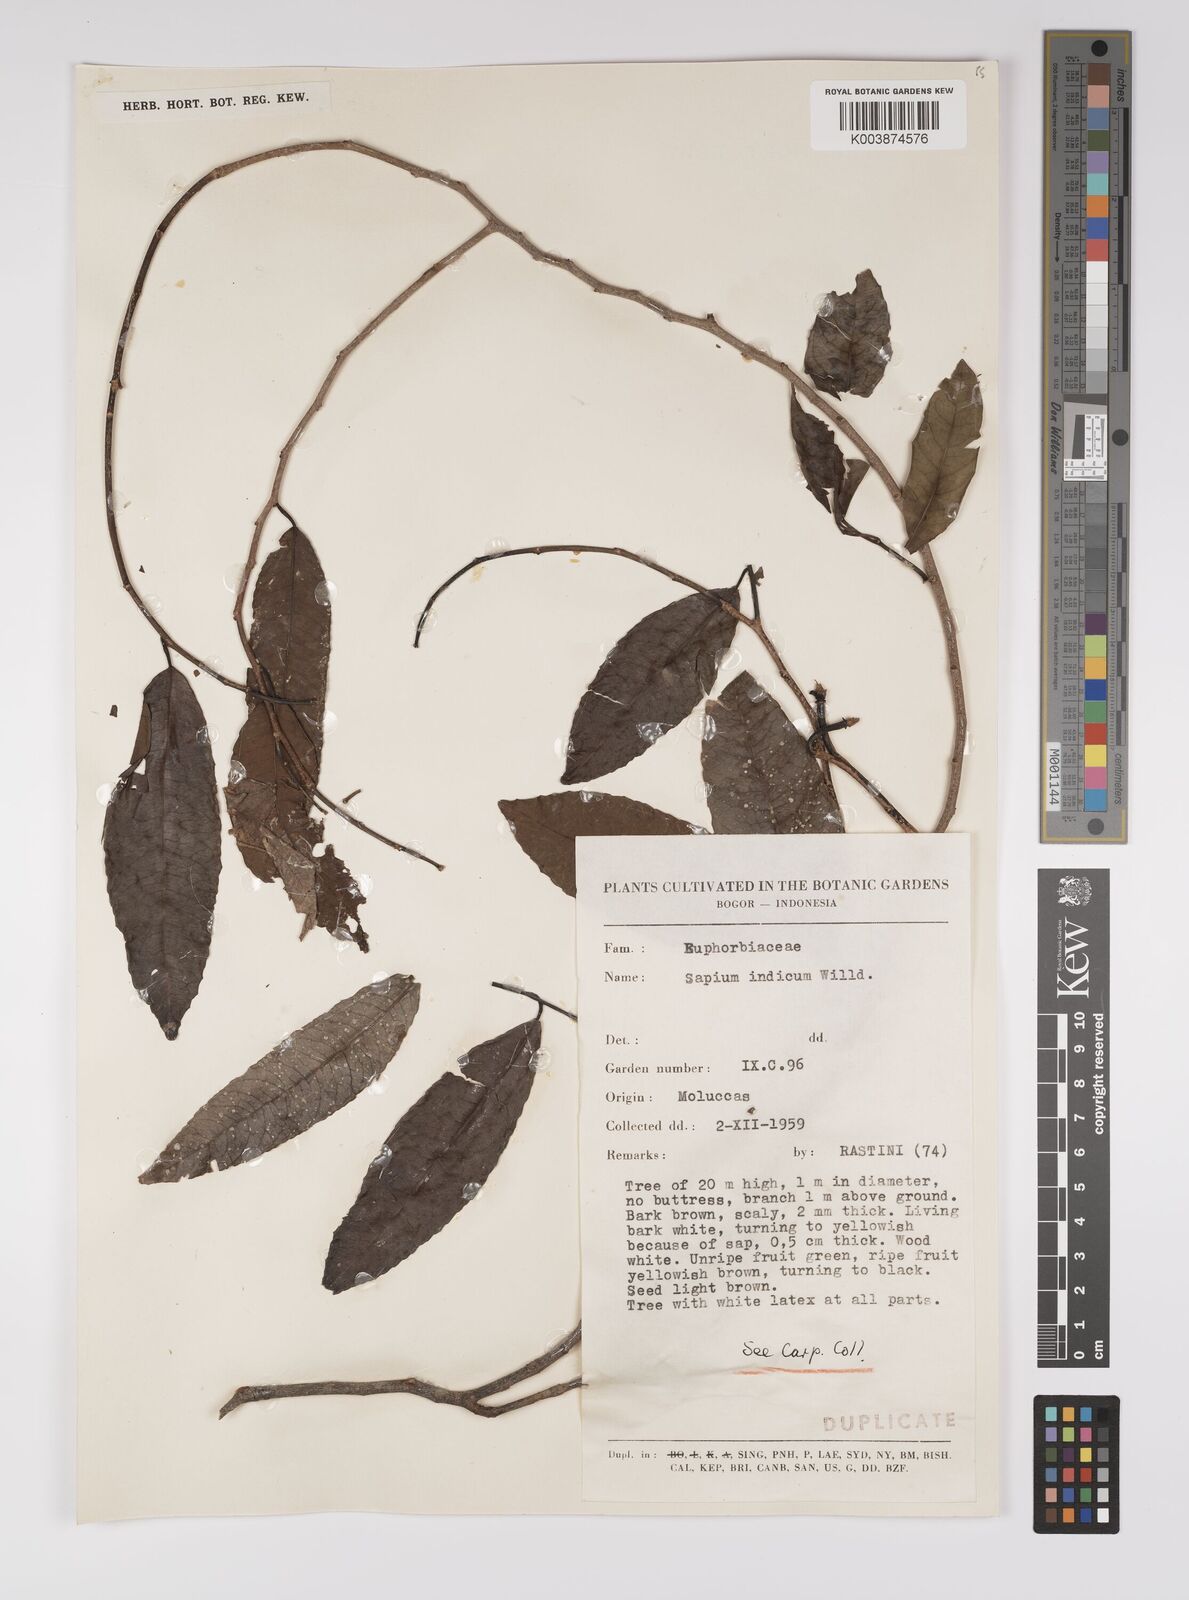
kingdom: Plantae
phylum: Tracheophyta
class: Magnoliopsida
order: Malpighiales
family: Euphorbiaceae
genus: Shirakiopsis
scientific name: Shirakiopsis indica
